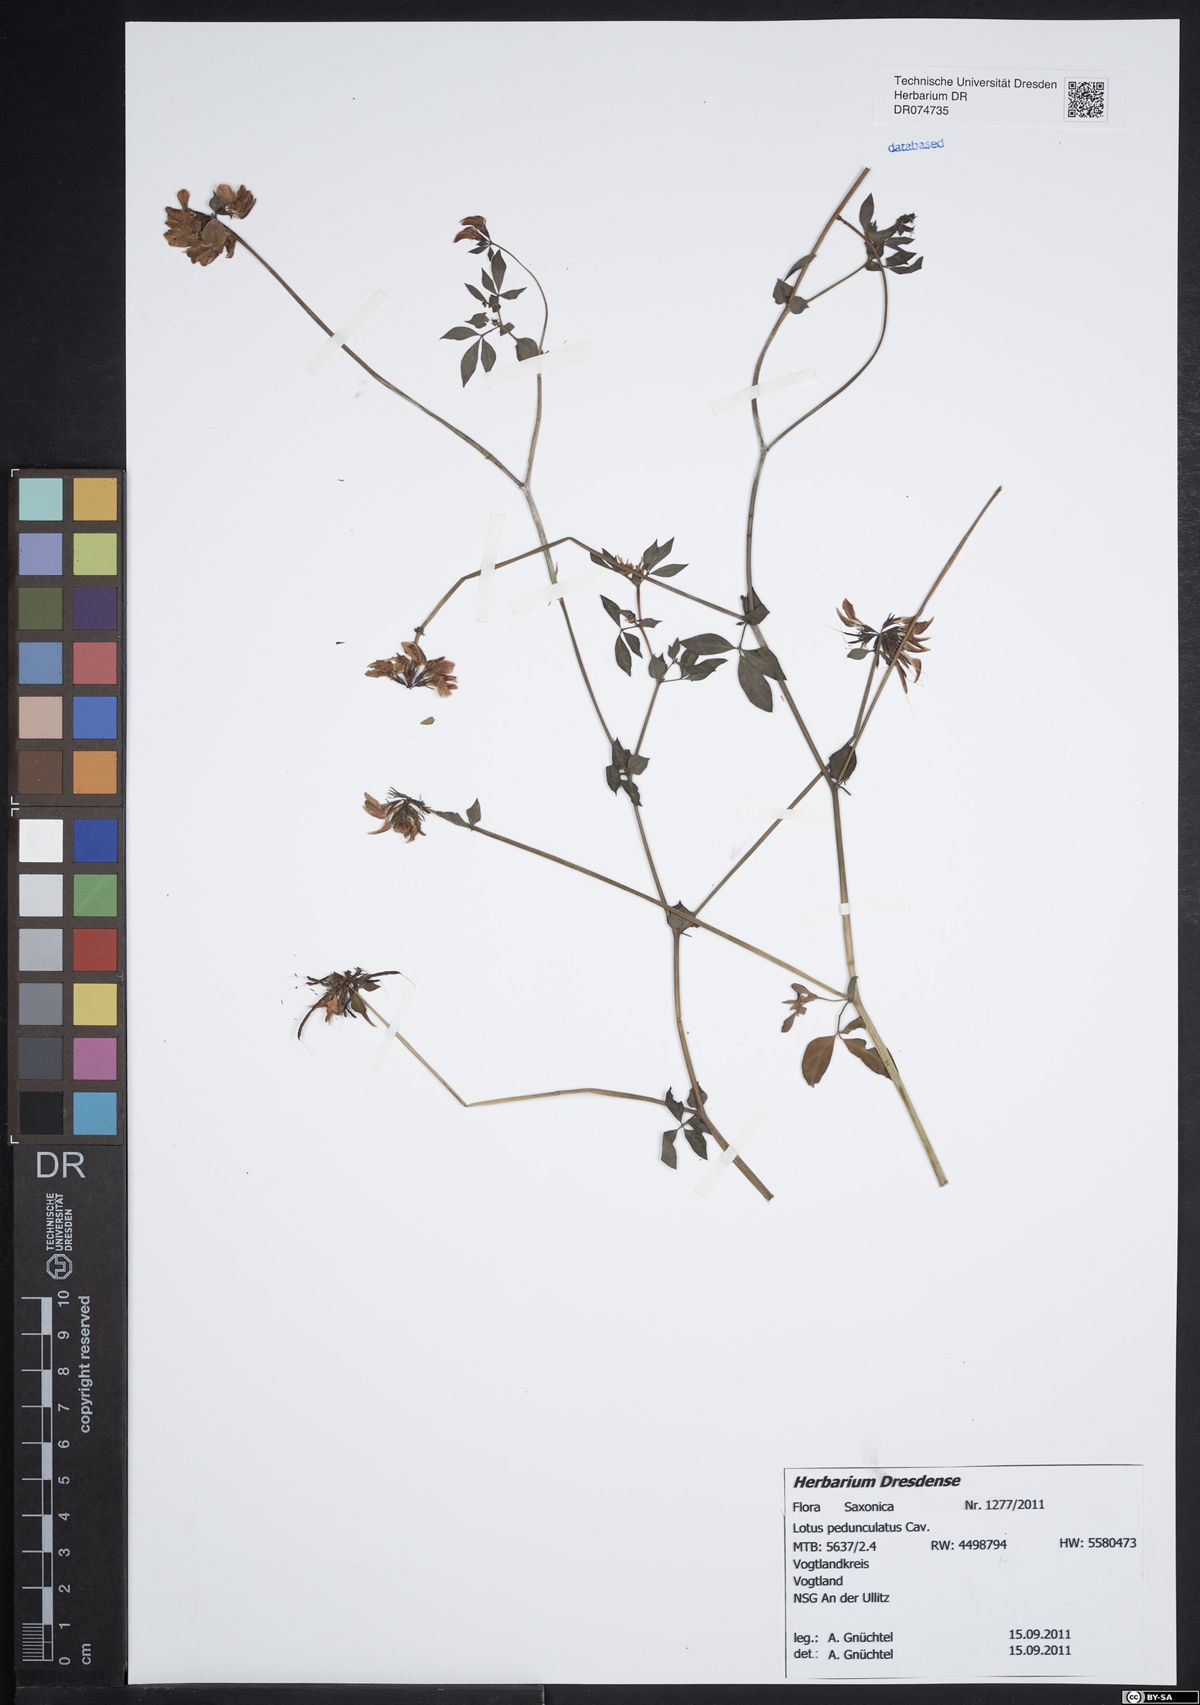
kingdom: Plantae
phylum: Tracheophyta
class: Magnoliopsida
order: Fabales
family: Fabaceae
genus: Lotus
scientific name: Lotus pedunculatus
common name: Greater birdsfoot-trefoil
